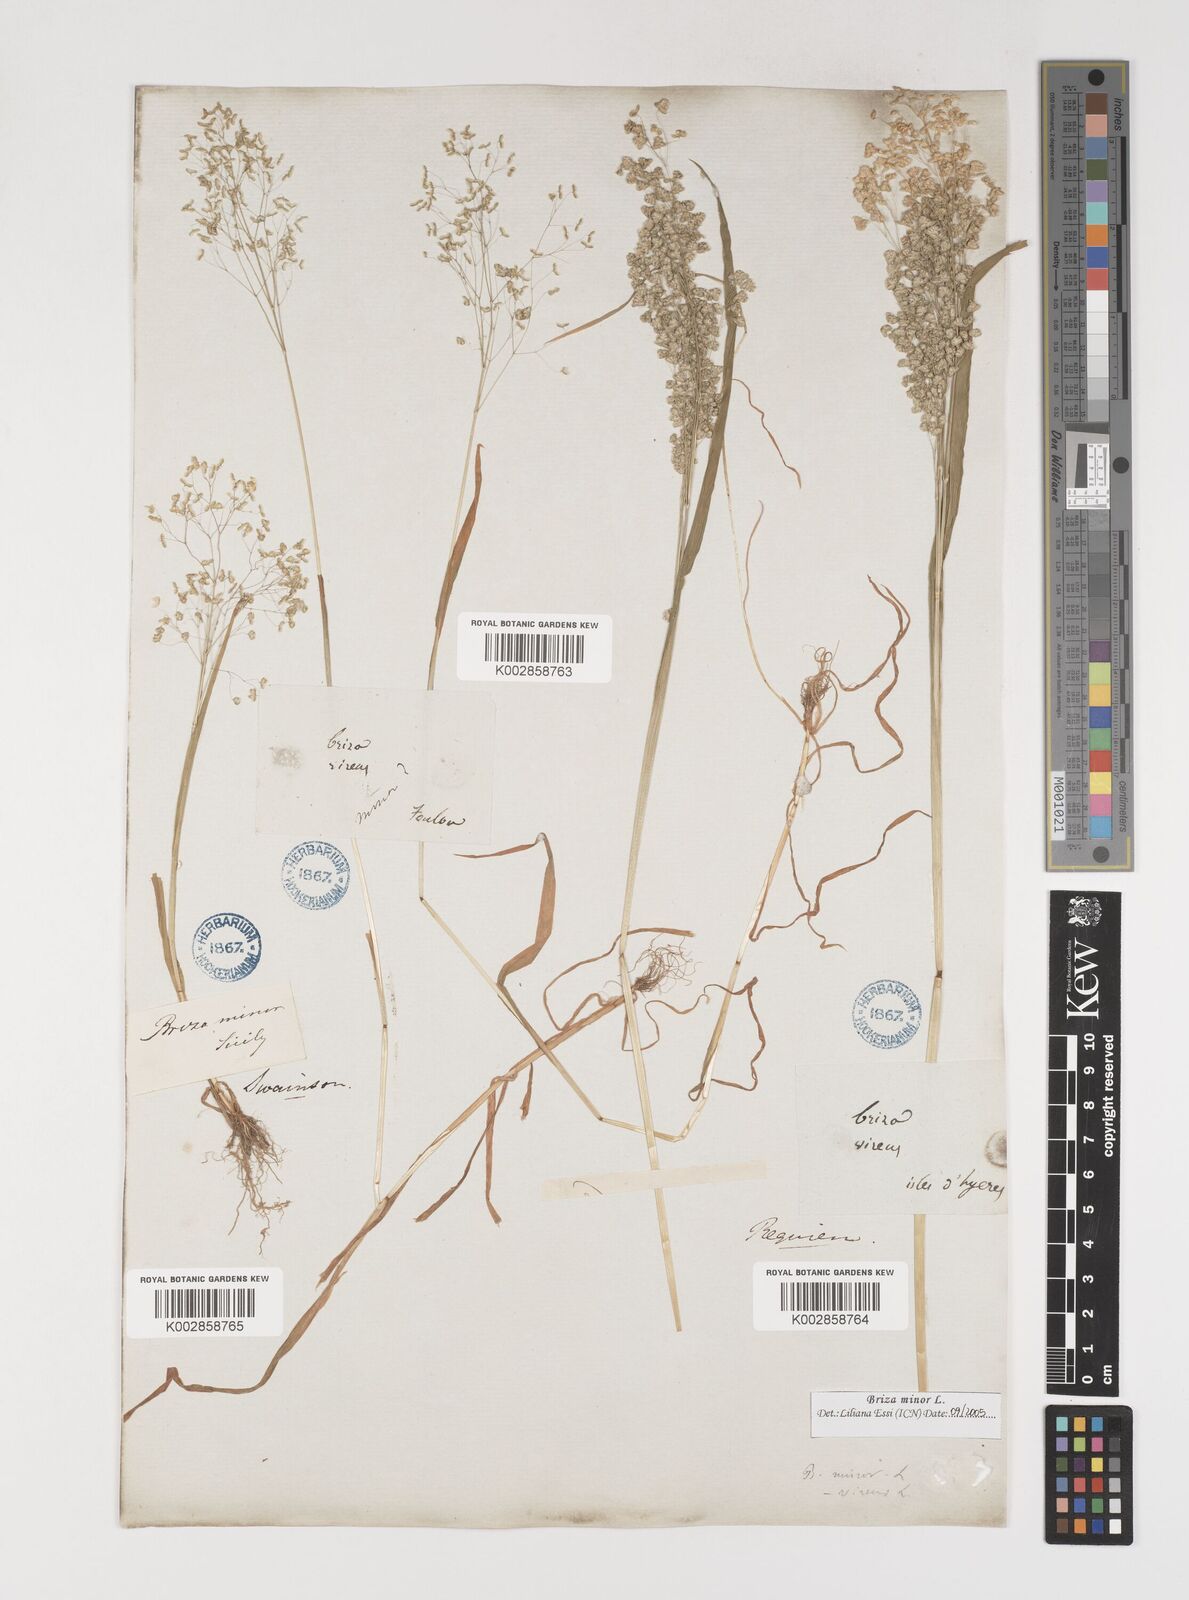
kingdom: Plantae
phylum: Tracheophyta
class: Liliopsida
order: Poales
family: Poaceae
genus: Briza
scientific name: Briza minor
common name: Lesser quaking-grass
